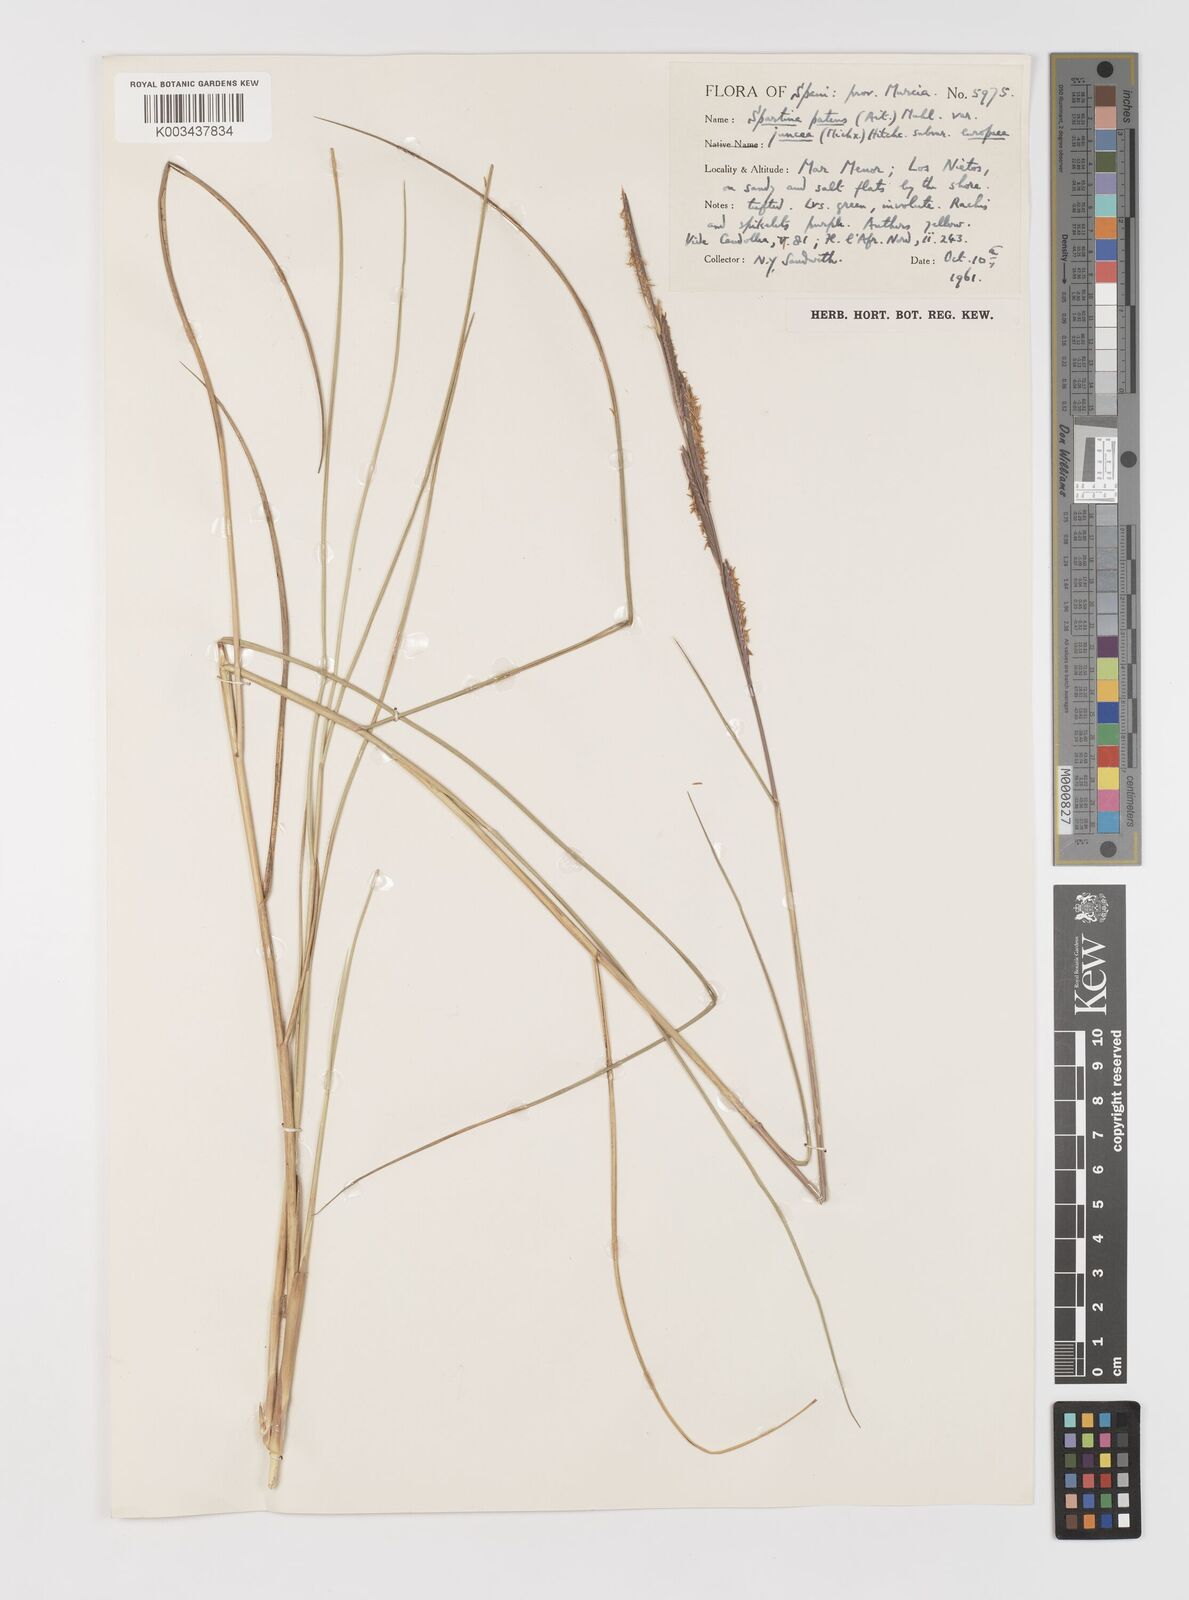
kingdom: Plantae
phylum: Tracheophyta
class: Liliopsida
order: Poales
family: Poaceae
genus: Sporobolus
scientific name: Sporobolus versicolor
